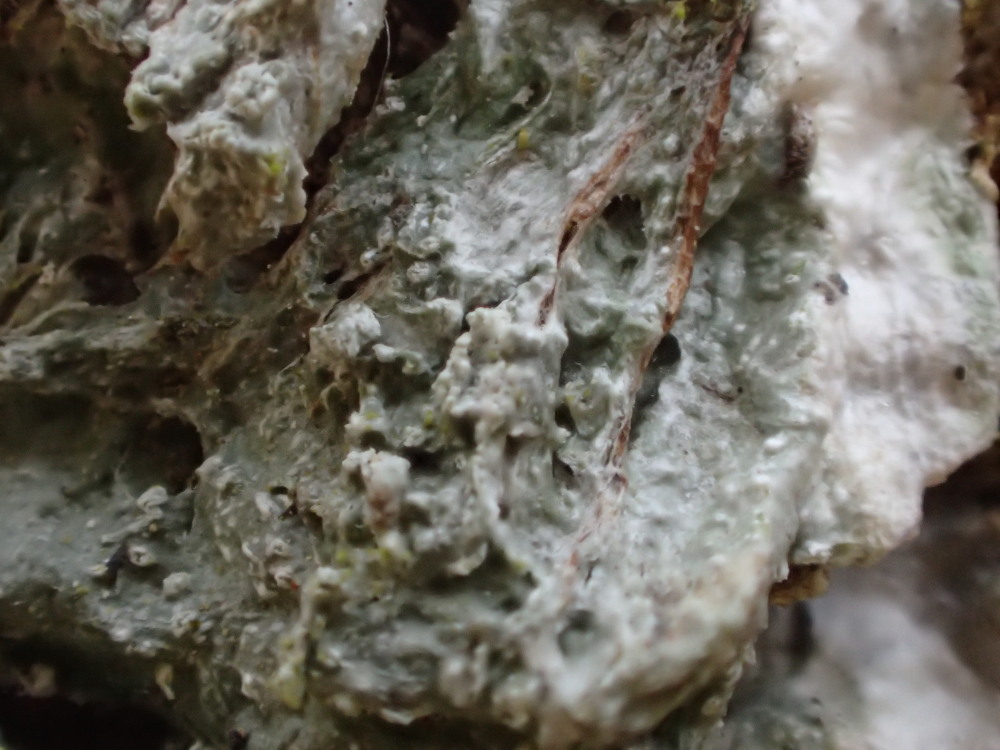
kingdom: Fungi
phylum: Ascomycota
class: Lecanoromycetes
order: Pertusariales
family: Pertusariaceae
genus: Lepra
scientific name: Lepra albescens
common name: hvidmelet prikvortelav
